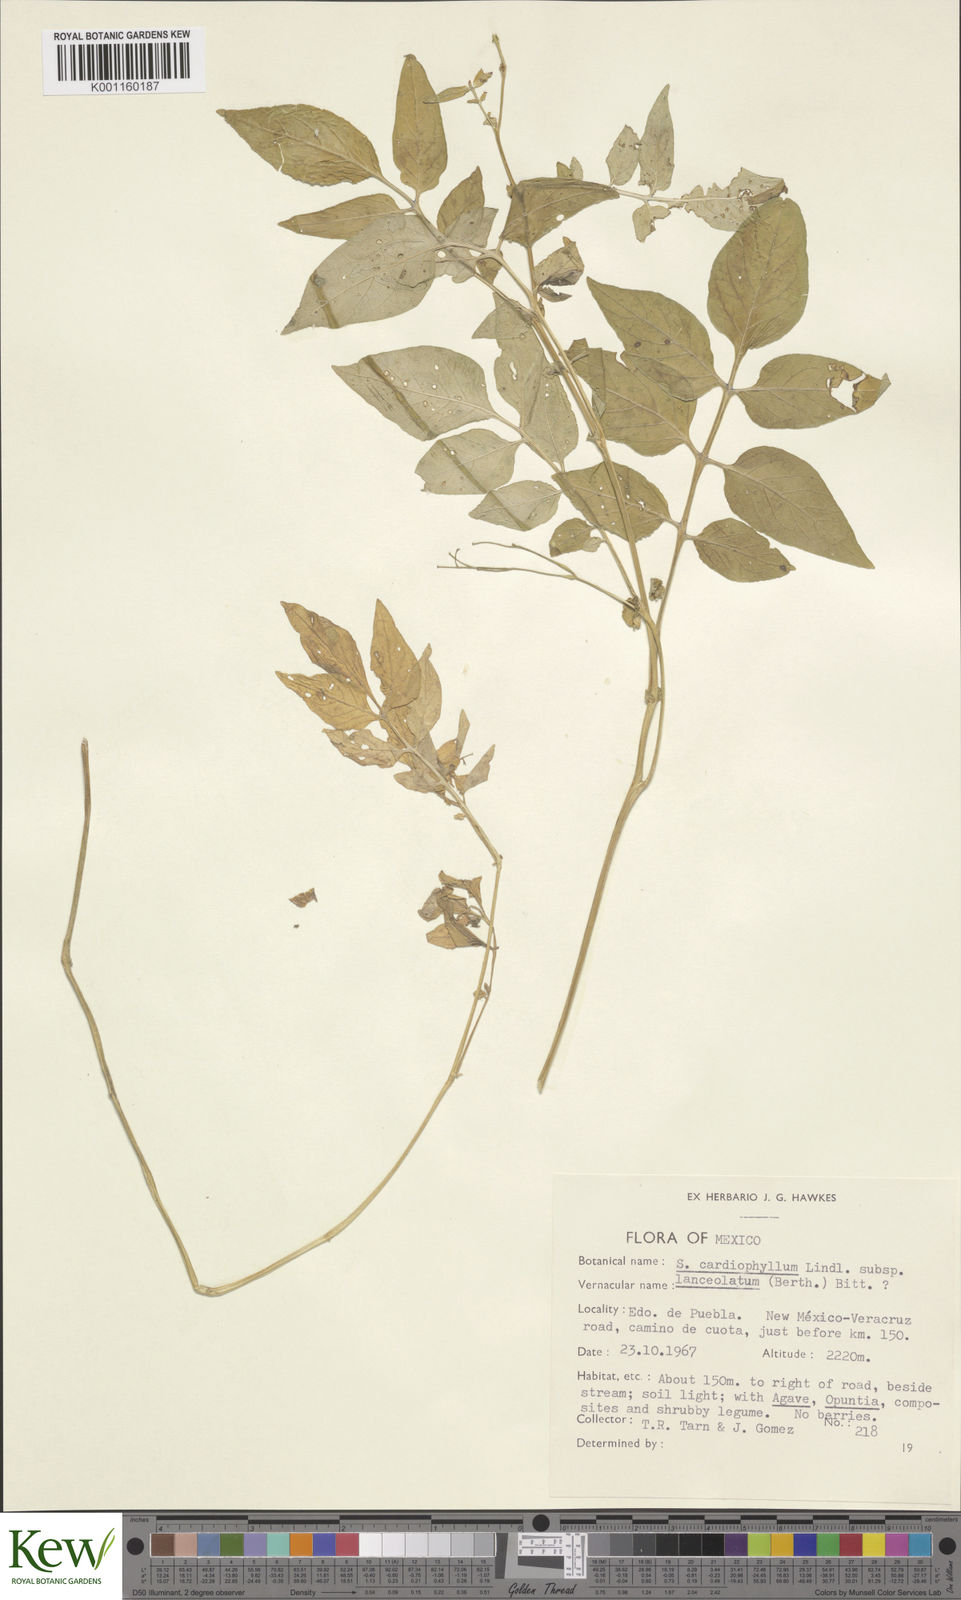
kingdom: Plantae
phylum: Tracheophyta
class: Magnoliopsida
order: Solanales
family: Solanaceae
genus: Solanum
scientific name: Solanum cardiophyllum
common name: Heartleaf horsenettle
